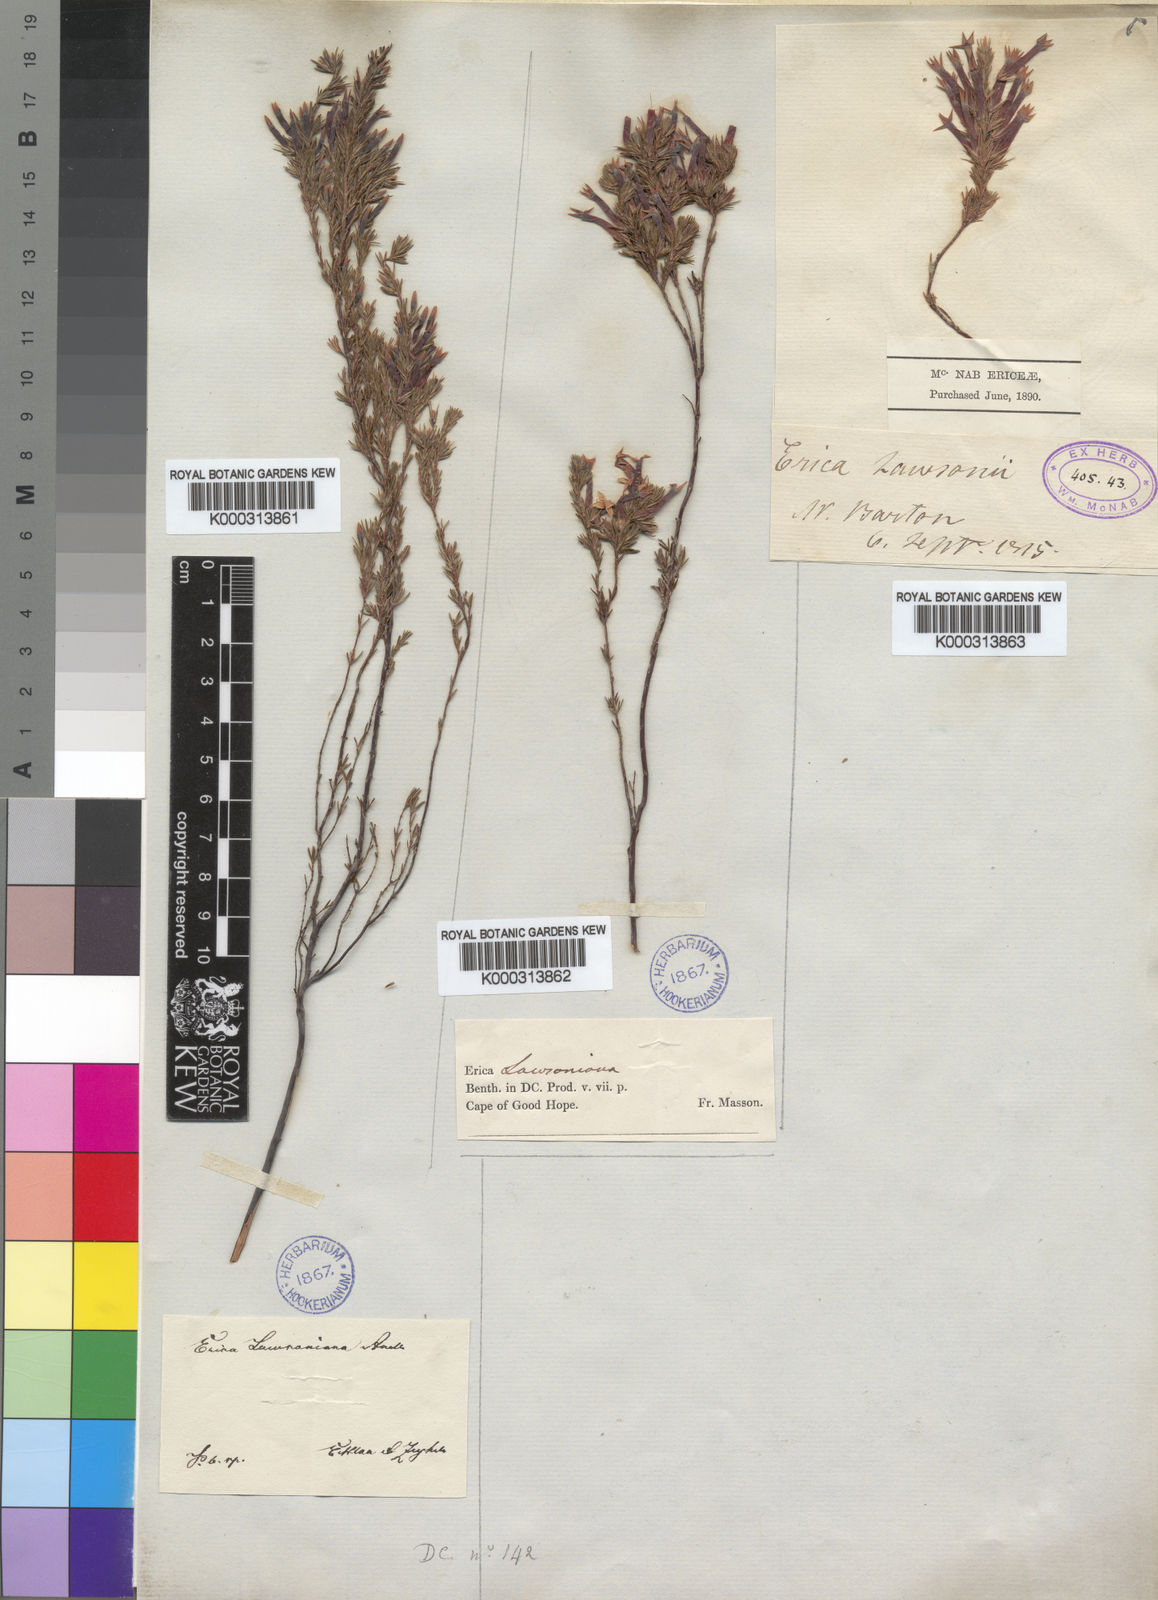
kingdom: Plantae
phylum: Tracheophyta
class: Magnoliopsida
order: Ericales
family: Ericaceae
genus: Erica
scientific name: Erica lawsonia
